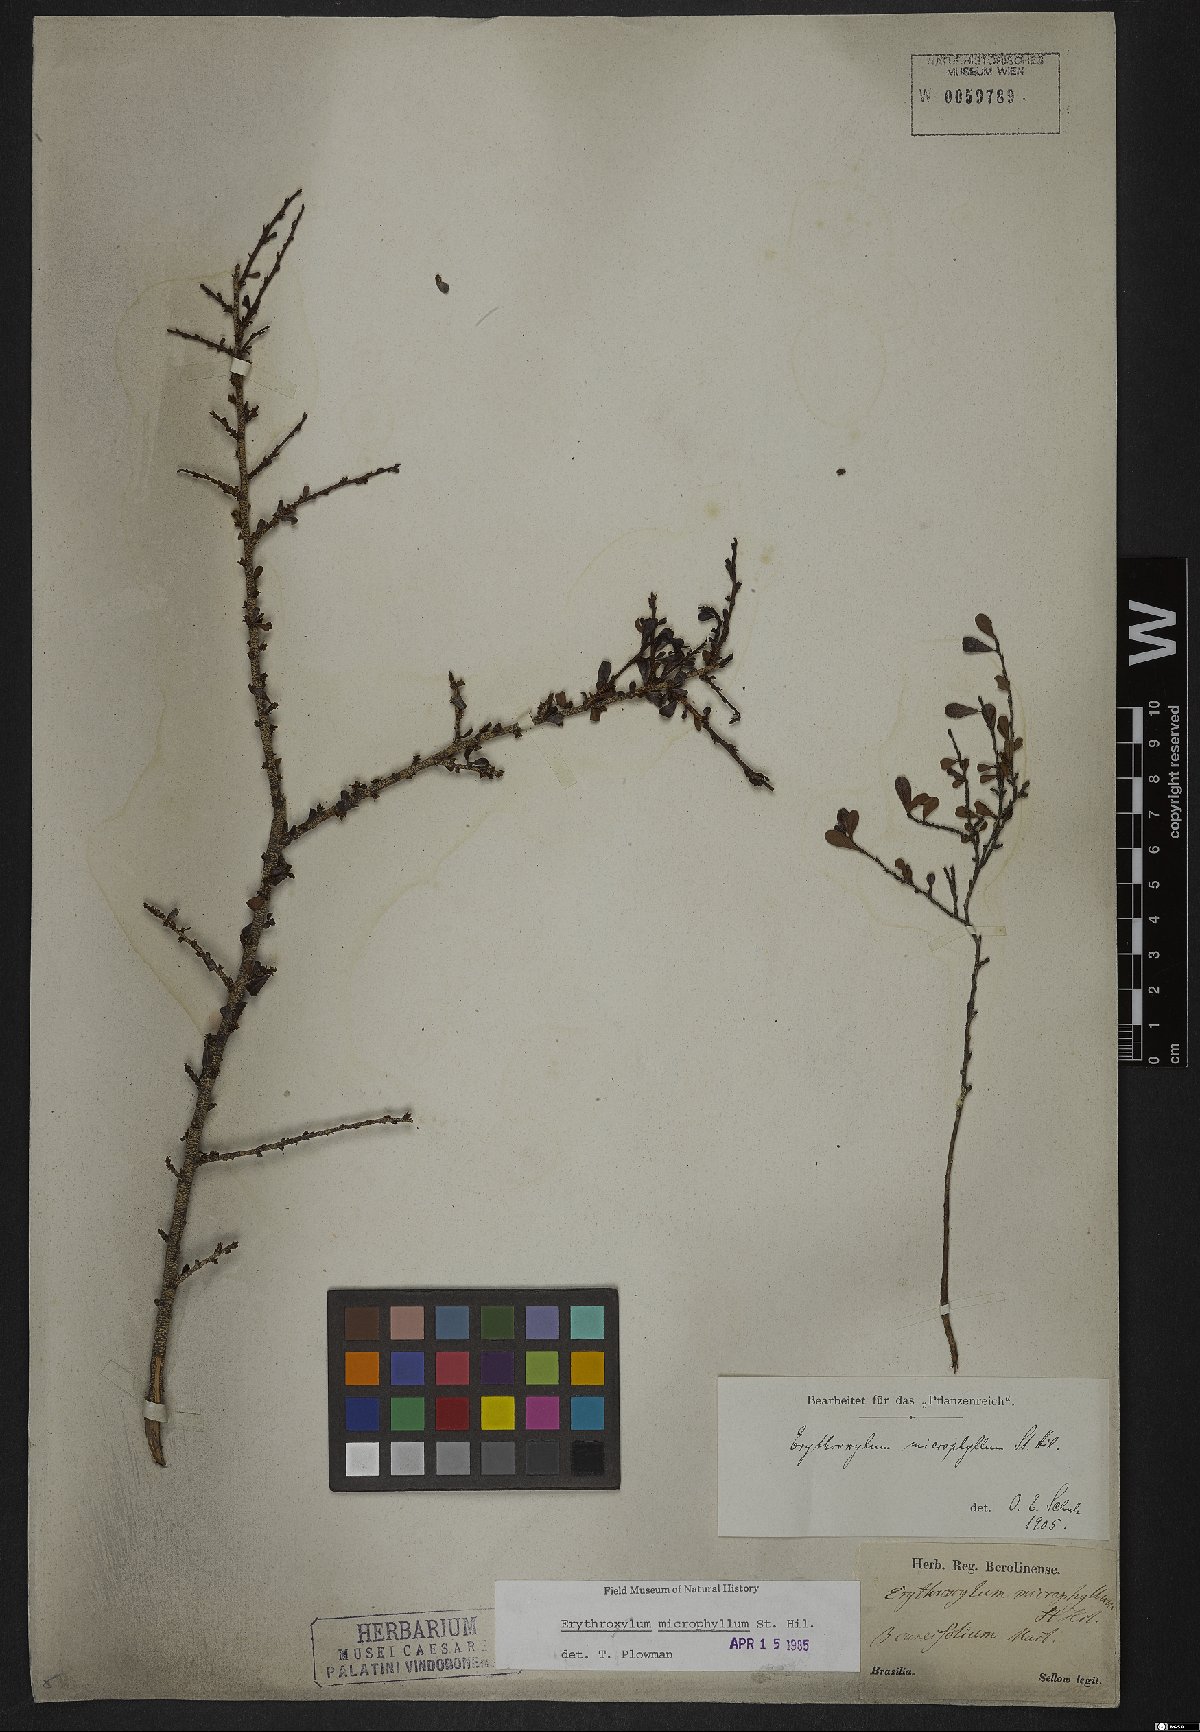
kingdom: Plantae
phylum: Tracheophyta
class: Magnoliopsida
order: Malpighiales
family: Erythroxylaceae
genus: Erythroxylum
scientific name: Erythroxylum microphyllum
